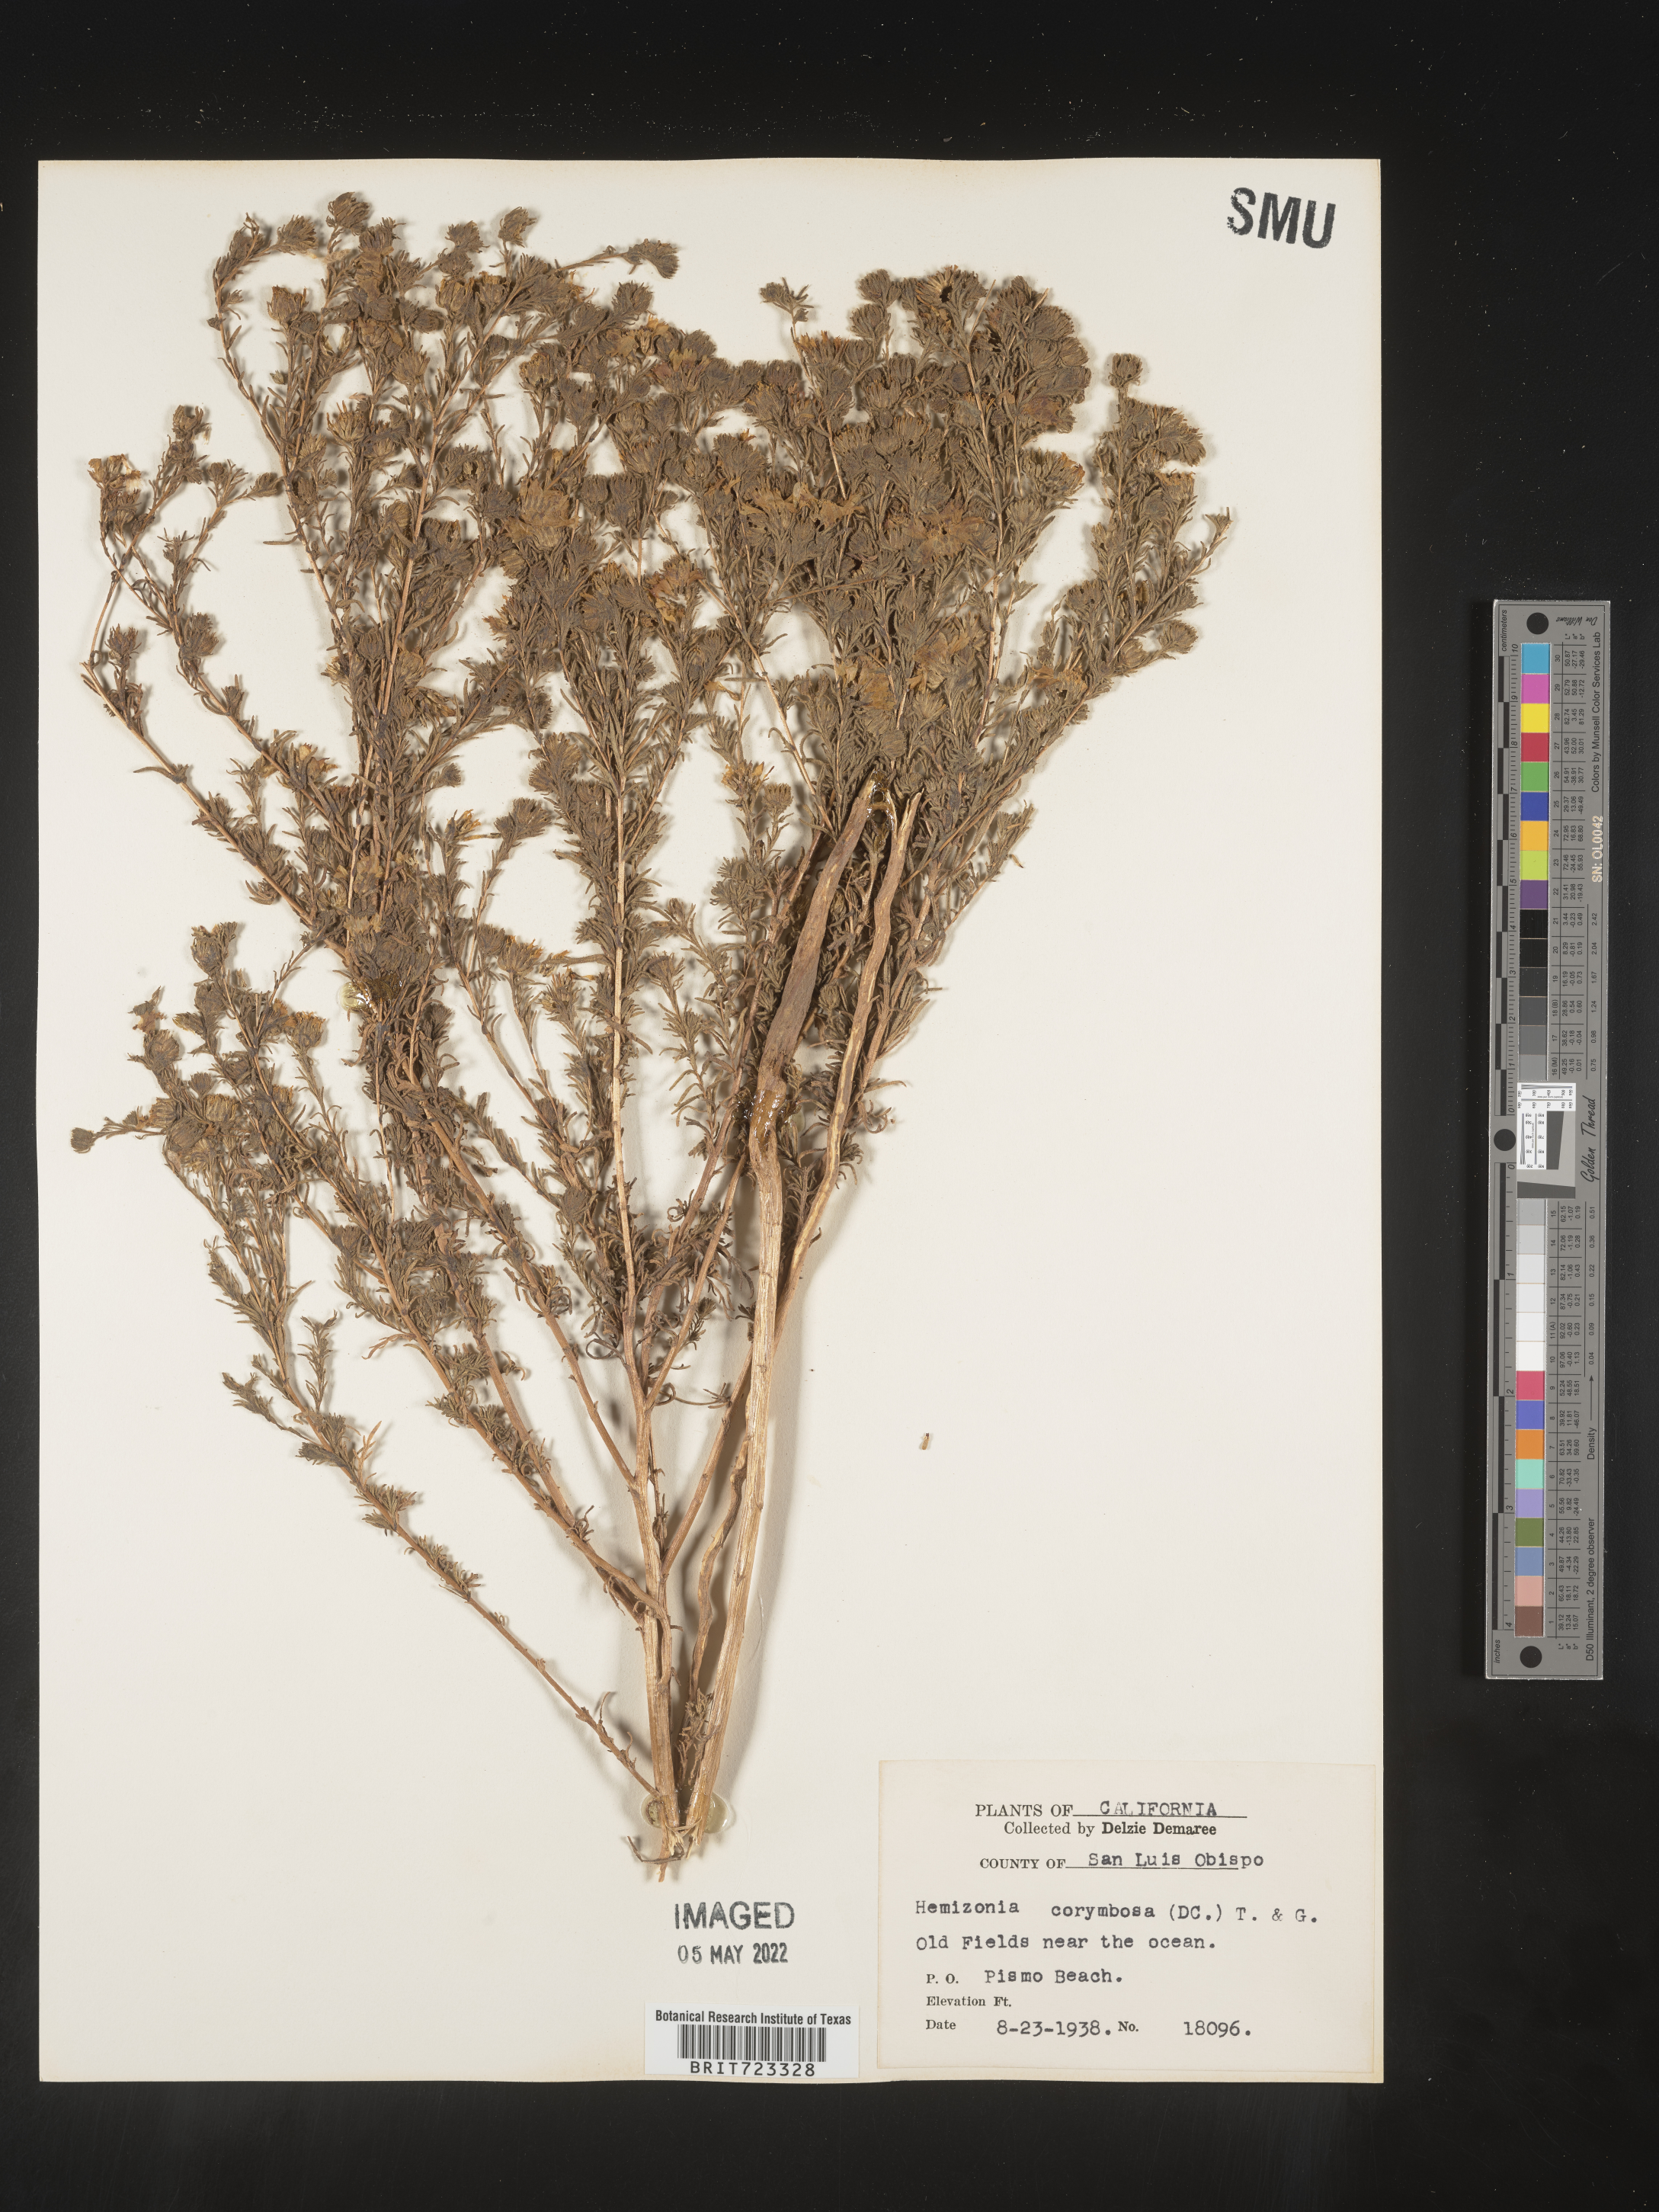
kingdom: Plantae
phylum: Tracheophyta
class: Magnoliopsida
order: Asterales
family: Asteraceae
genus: Hemizonia
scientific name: Hemizonia
